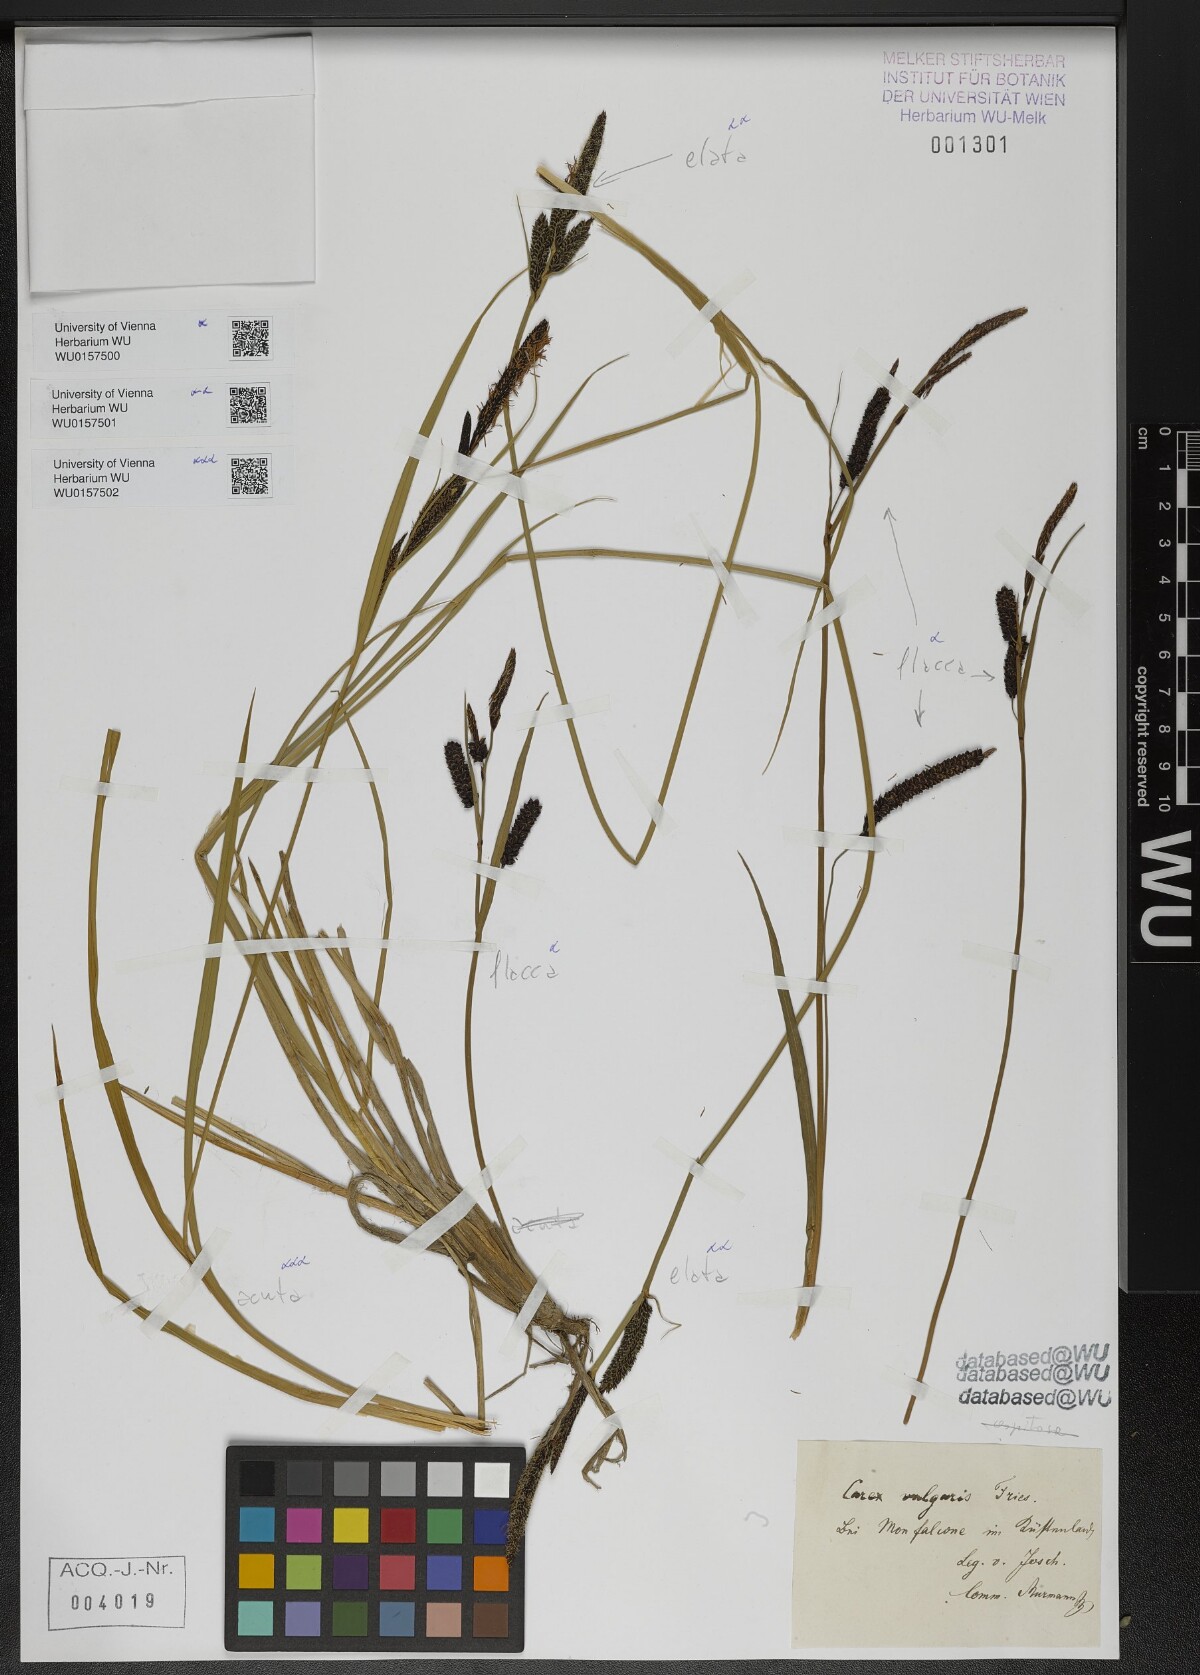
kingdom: Plantae
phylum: Tracheophyta
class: Liliopsida
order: Poales
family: Cyperaceae
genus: Carex
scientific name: Carex elata
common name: Tufted sedge
